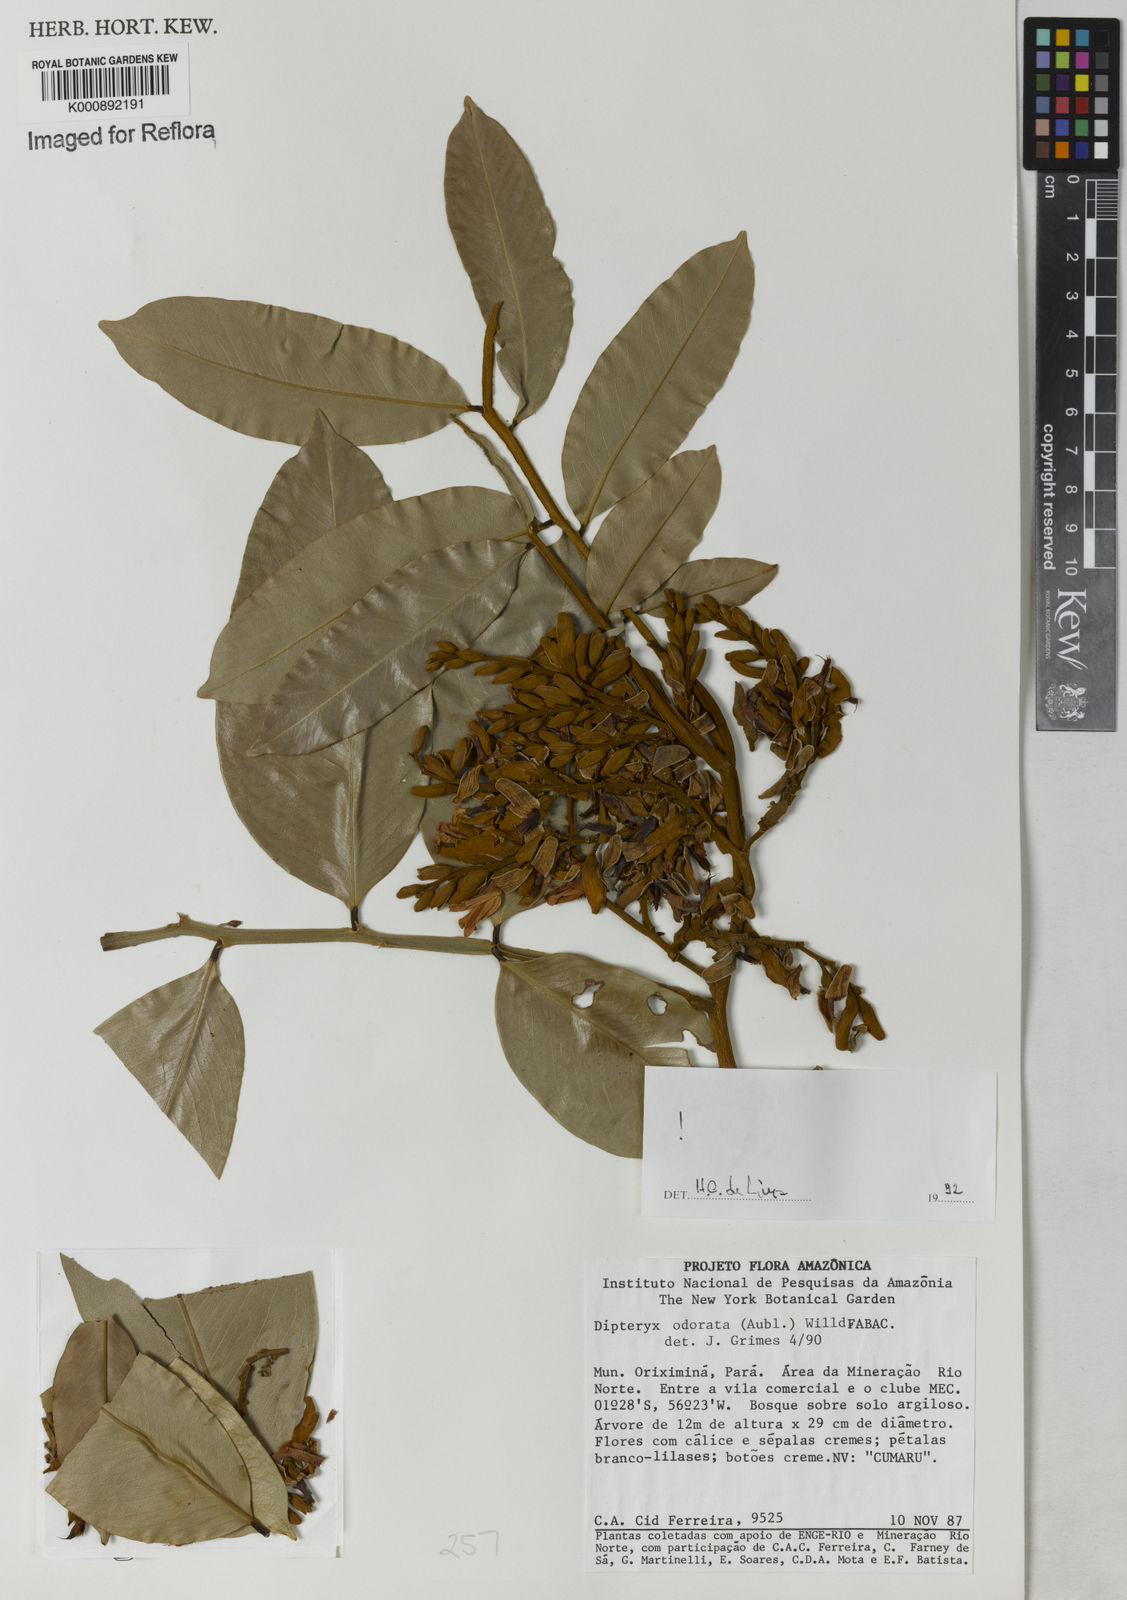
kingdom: Plantae
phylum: Tracheophyta
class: Magnoliopsida
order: Fabales
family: Fabaceae
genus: Dipteryx
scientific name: Dipteryx
